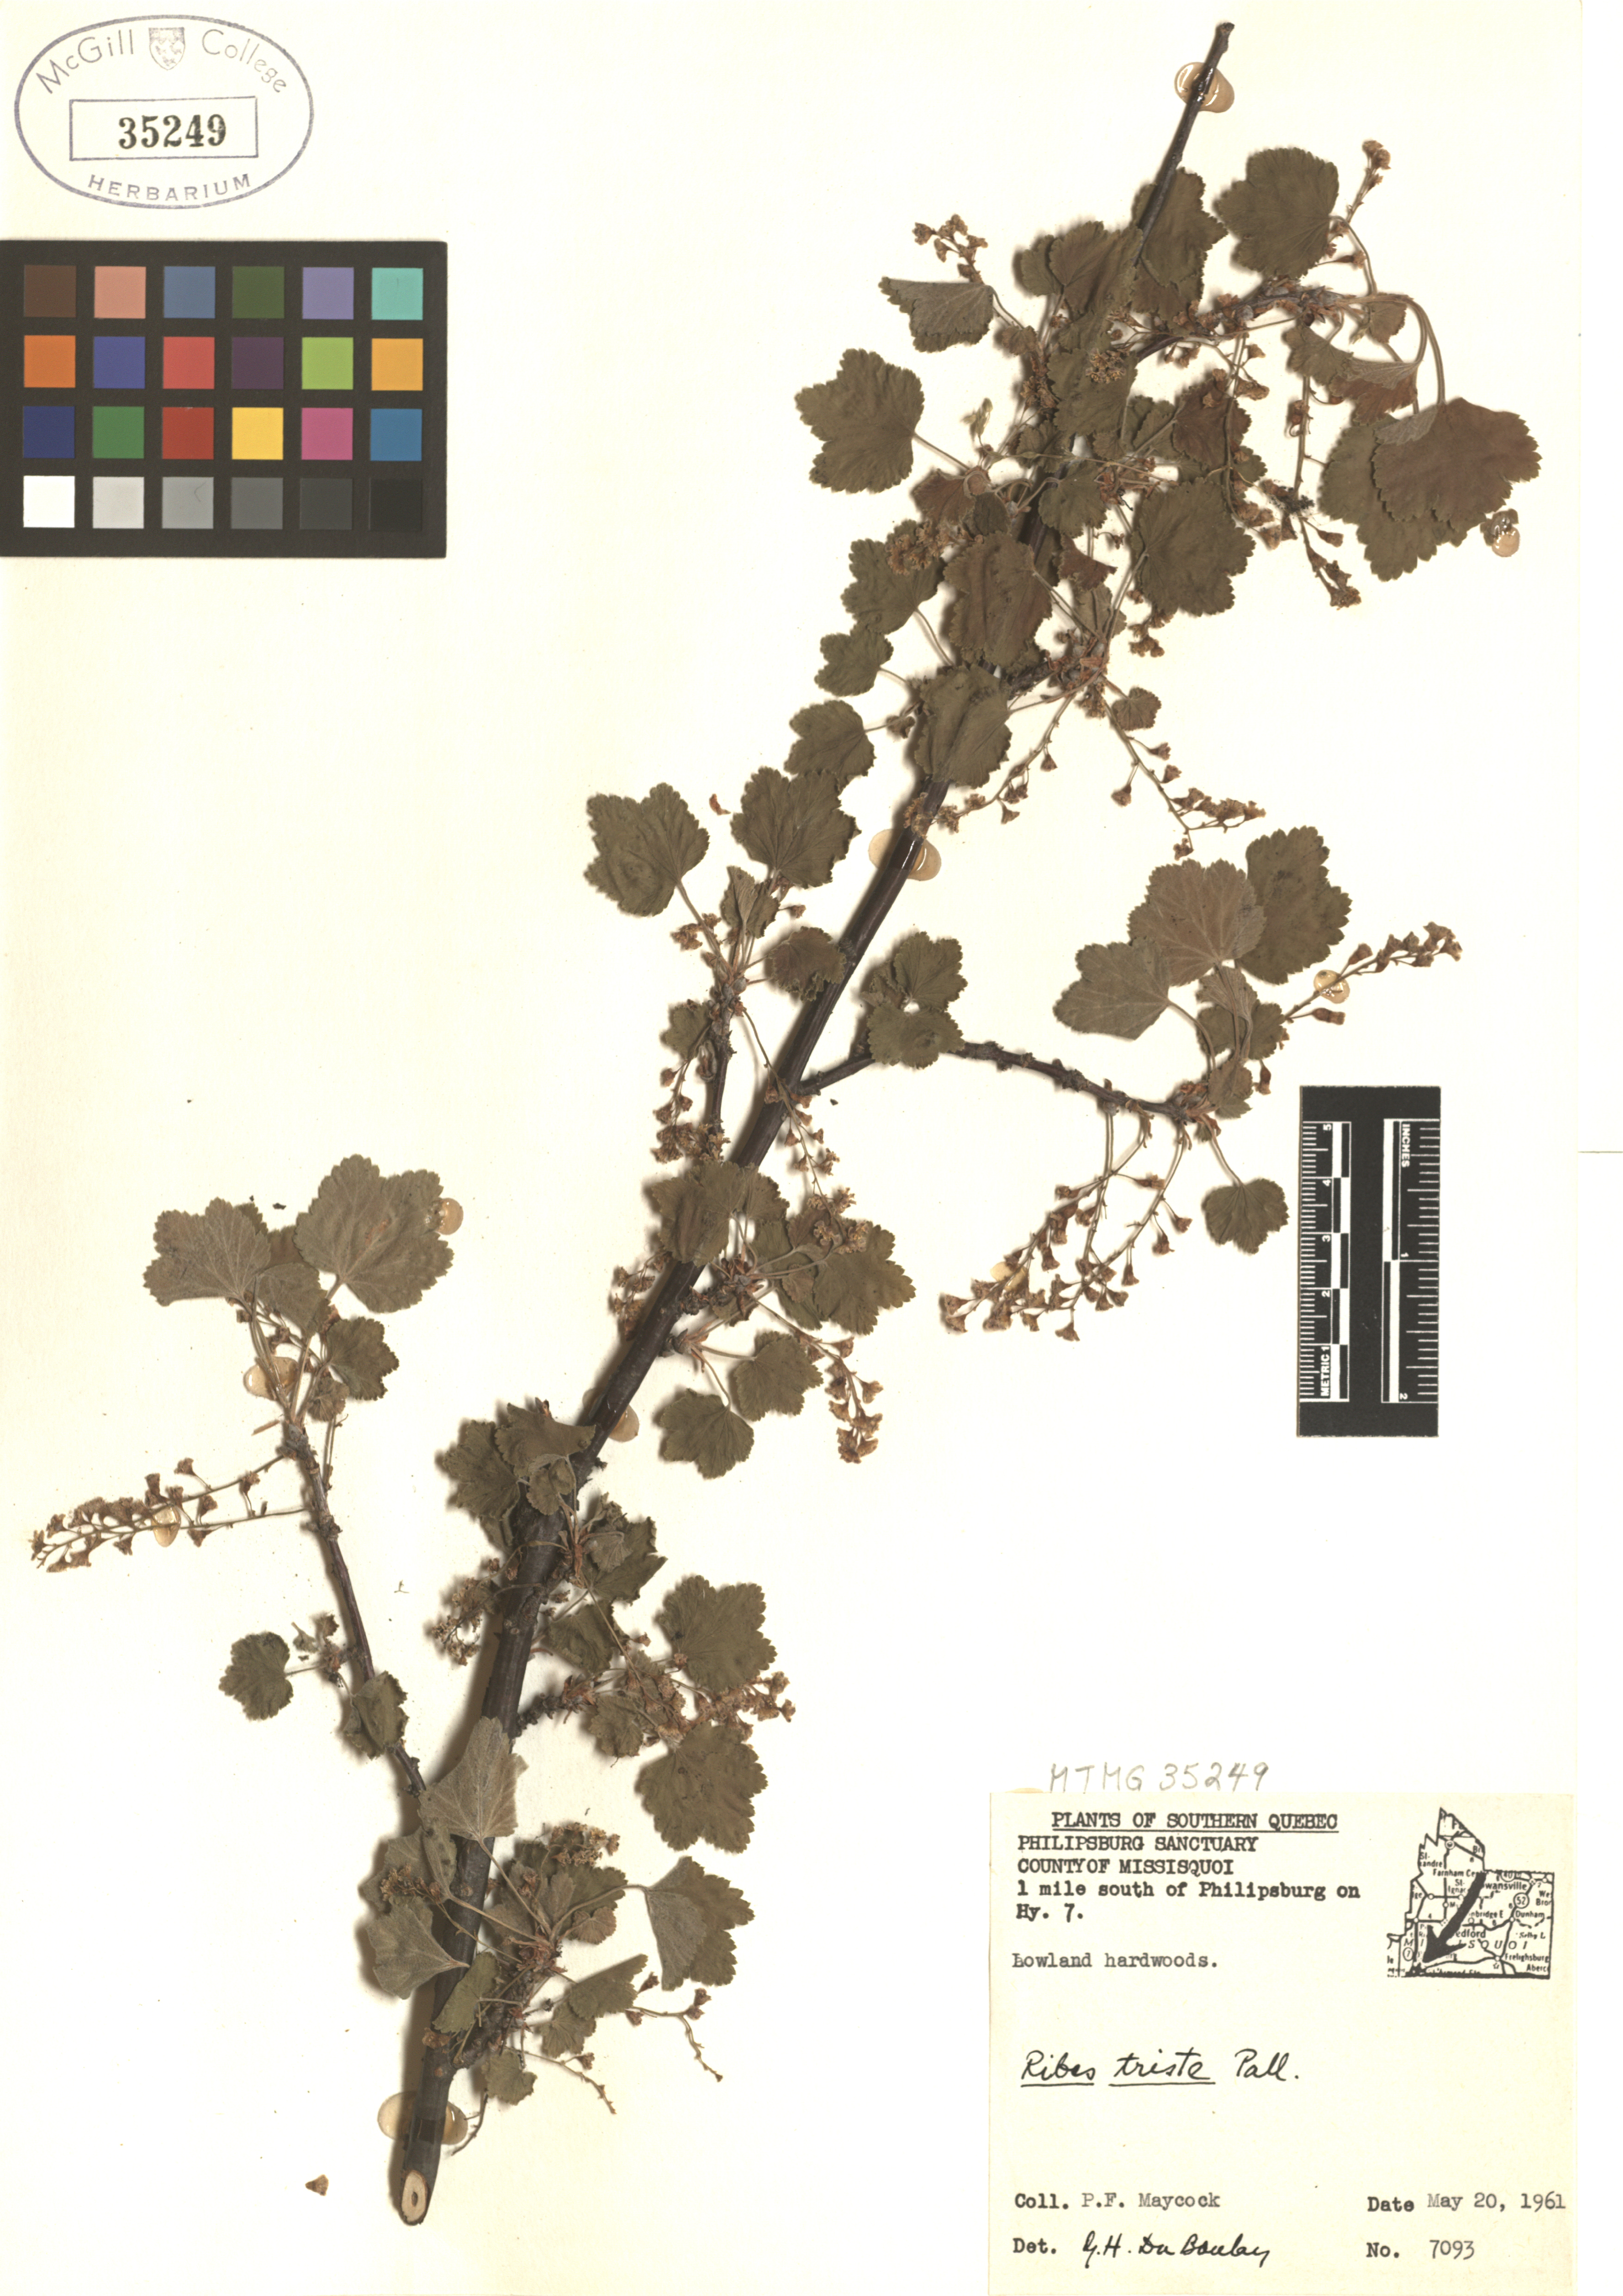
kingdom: Plantae
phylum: Tracheophyta
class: Magnoliopsida
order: Saxifragales
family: Grossulariaceae
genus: Ribes
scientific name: Ribes triste
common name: Swamp red currant
